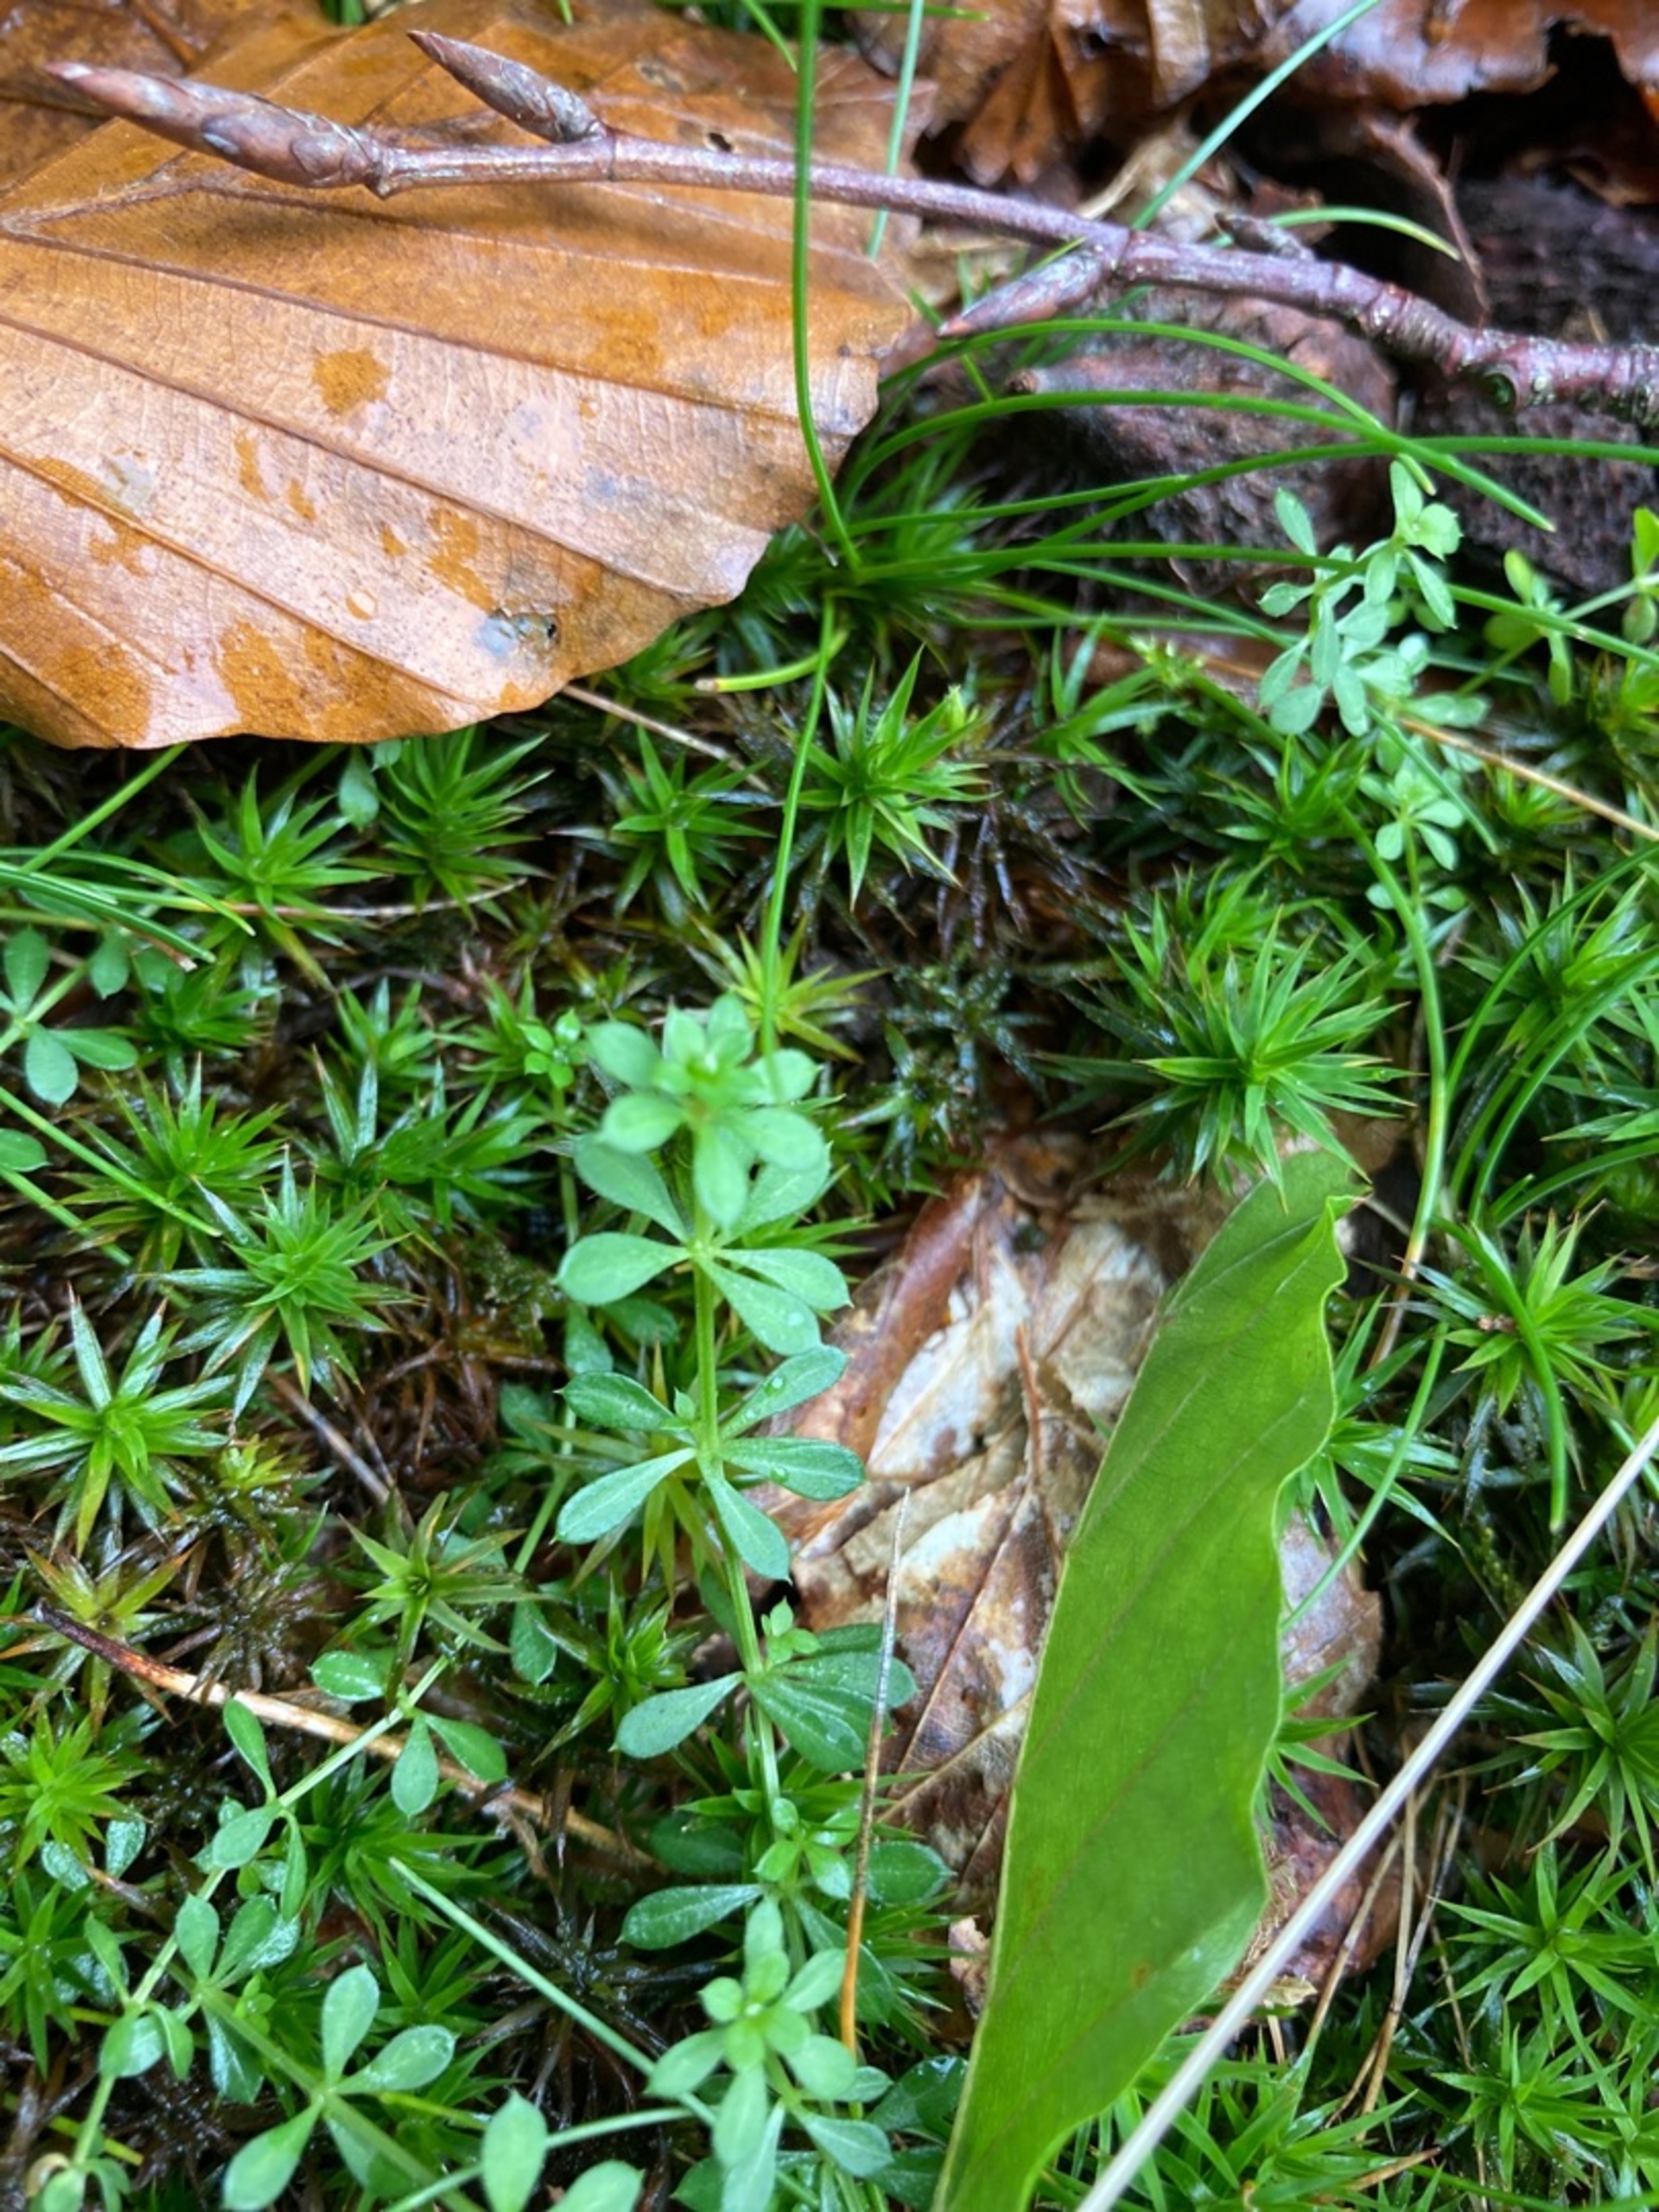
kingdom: Plantae
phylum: Tracheophyta
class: Magnoliopsida
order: Gentianales
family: Rubiaceae
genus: Galium
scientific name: Galium saxatile
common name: Lyng-snerre
